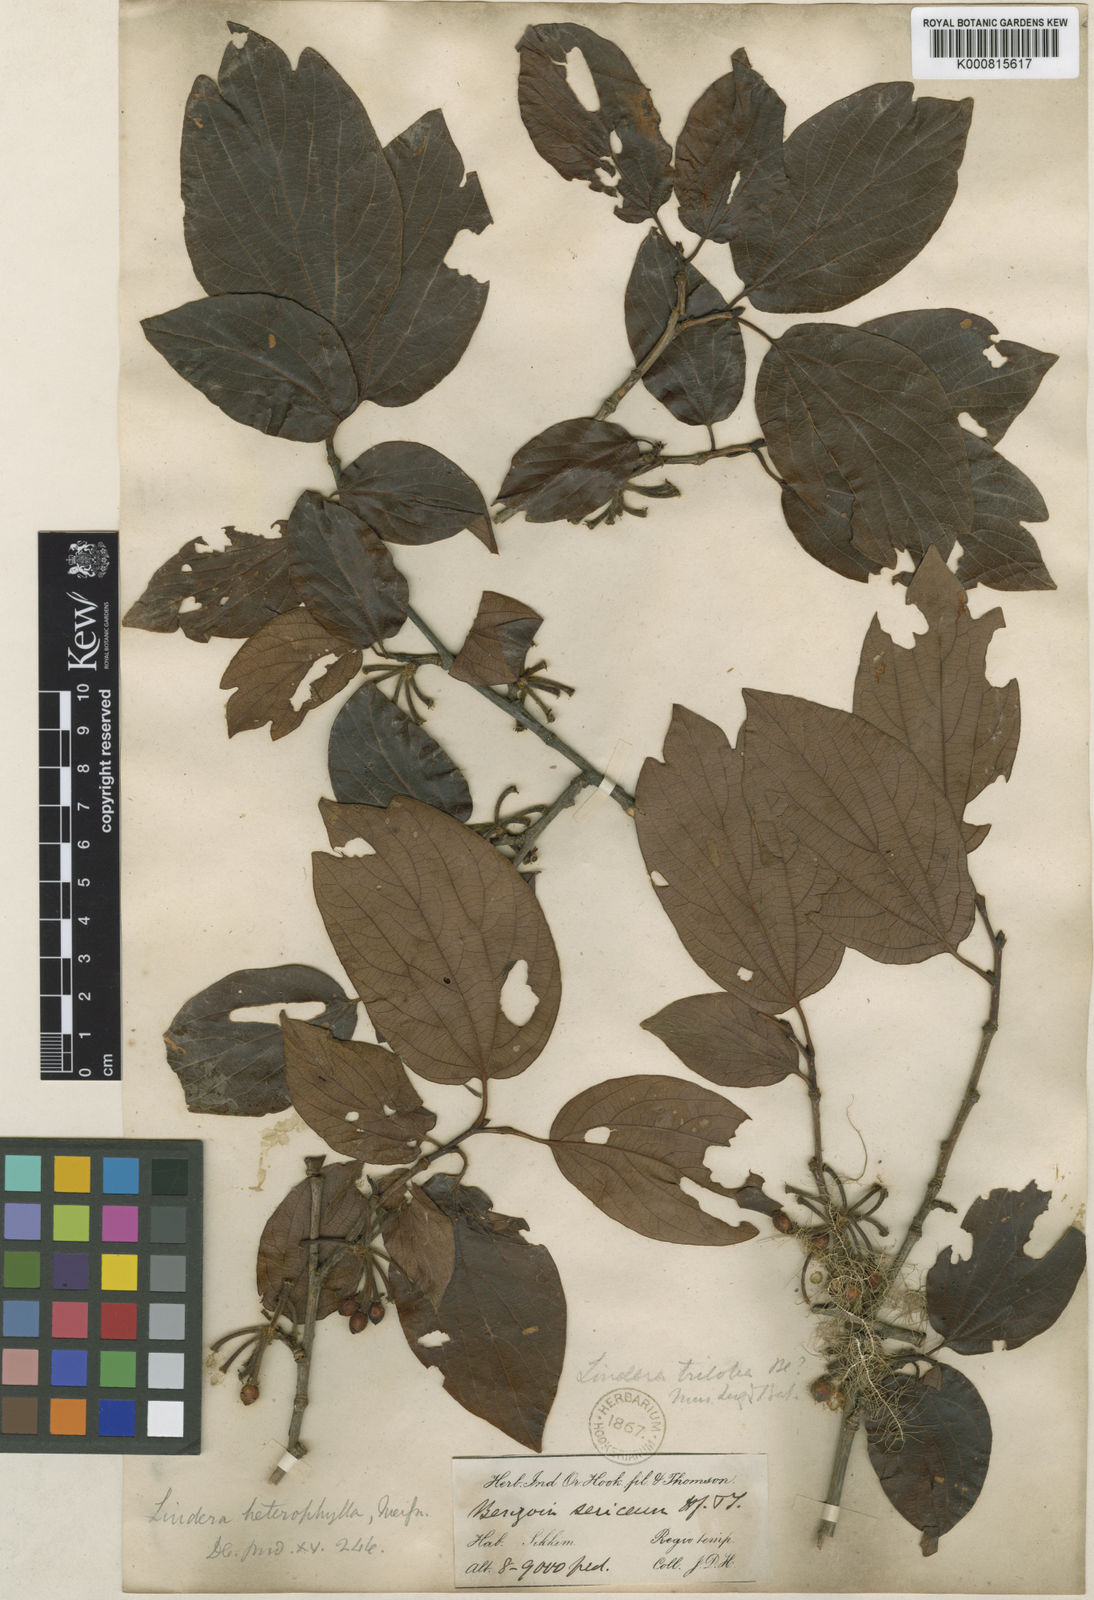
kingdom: Plantae
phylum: Tracheophyta
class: Magnoliopsida
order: Laurales
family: Lauraceae
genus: Lindera
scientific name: Lindera obtusiloba
